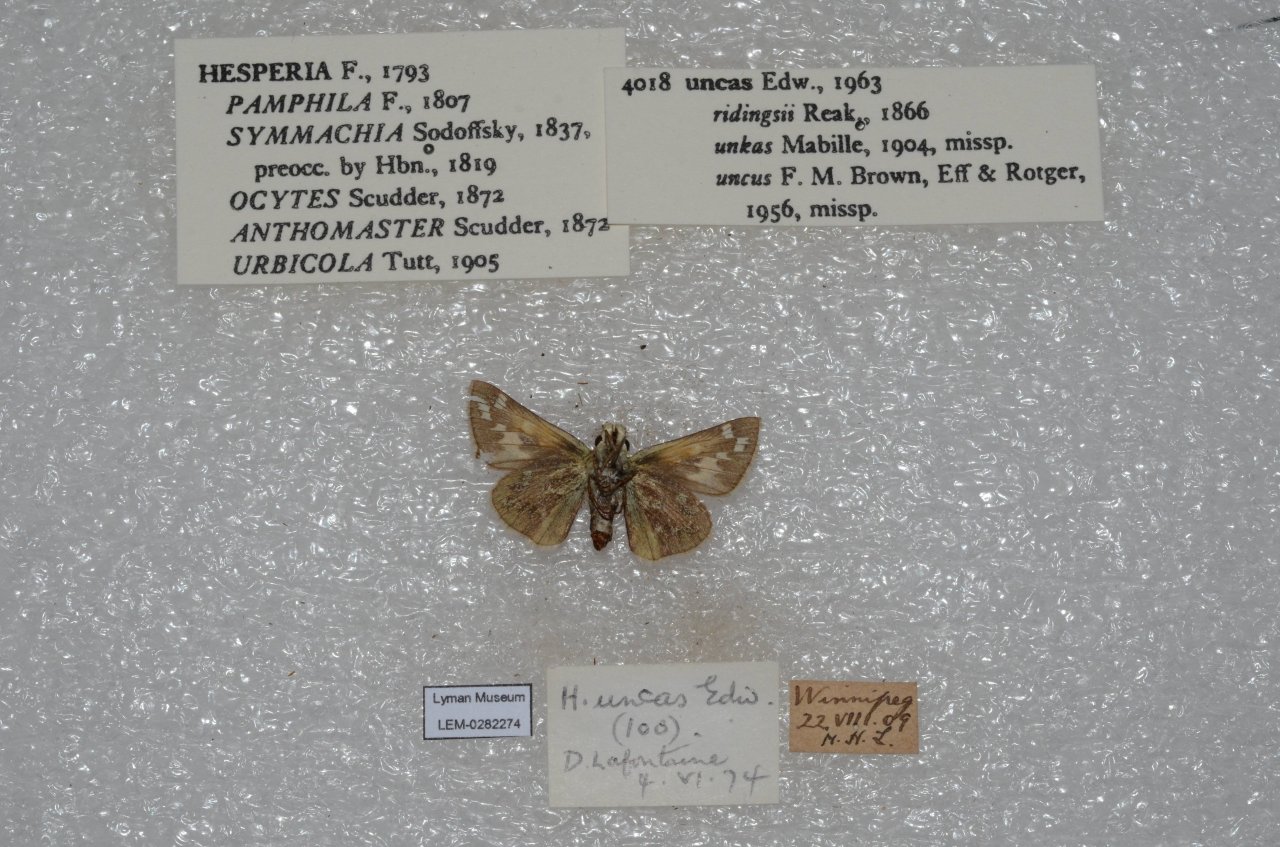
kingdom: Animalia
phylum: Arthropoda
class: Insecta
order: Lepidoptera
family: Hesperiidae
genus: Hesperia
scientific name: Hesperia uncas
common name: Uncas Skipper
